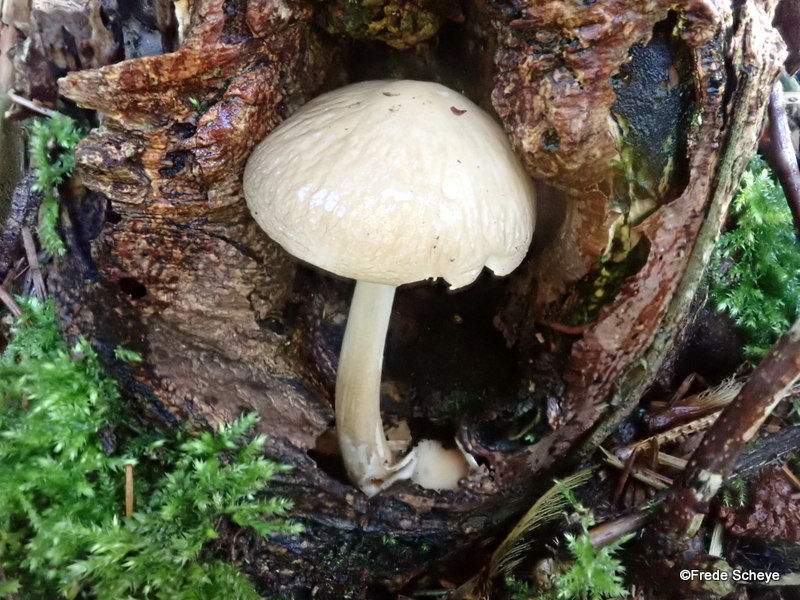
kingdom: Fungi
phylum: Basidiomycota
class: Agaricomycetes
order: Agaricales
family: Physalacriaceae
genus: Hymenopellis
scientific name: Hymenopellis radicata
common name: almindelig pælerodshat
